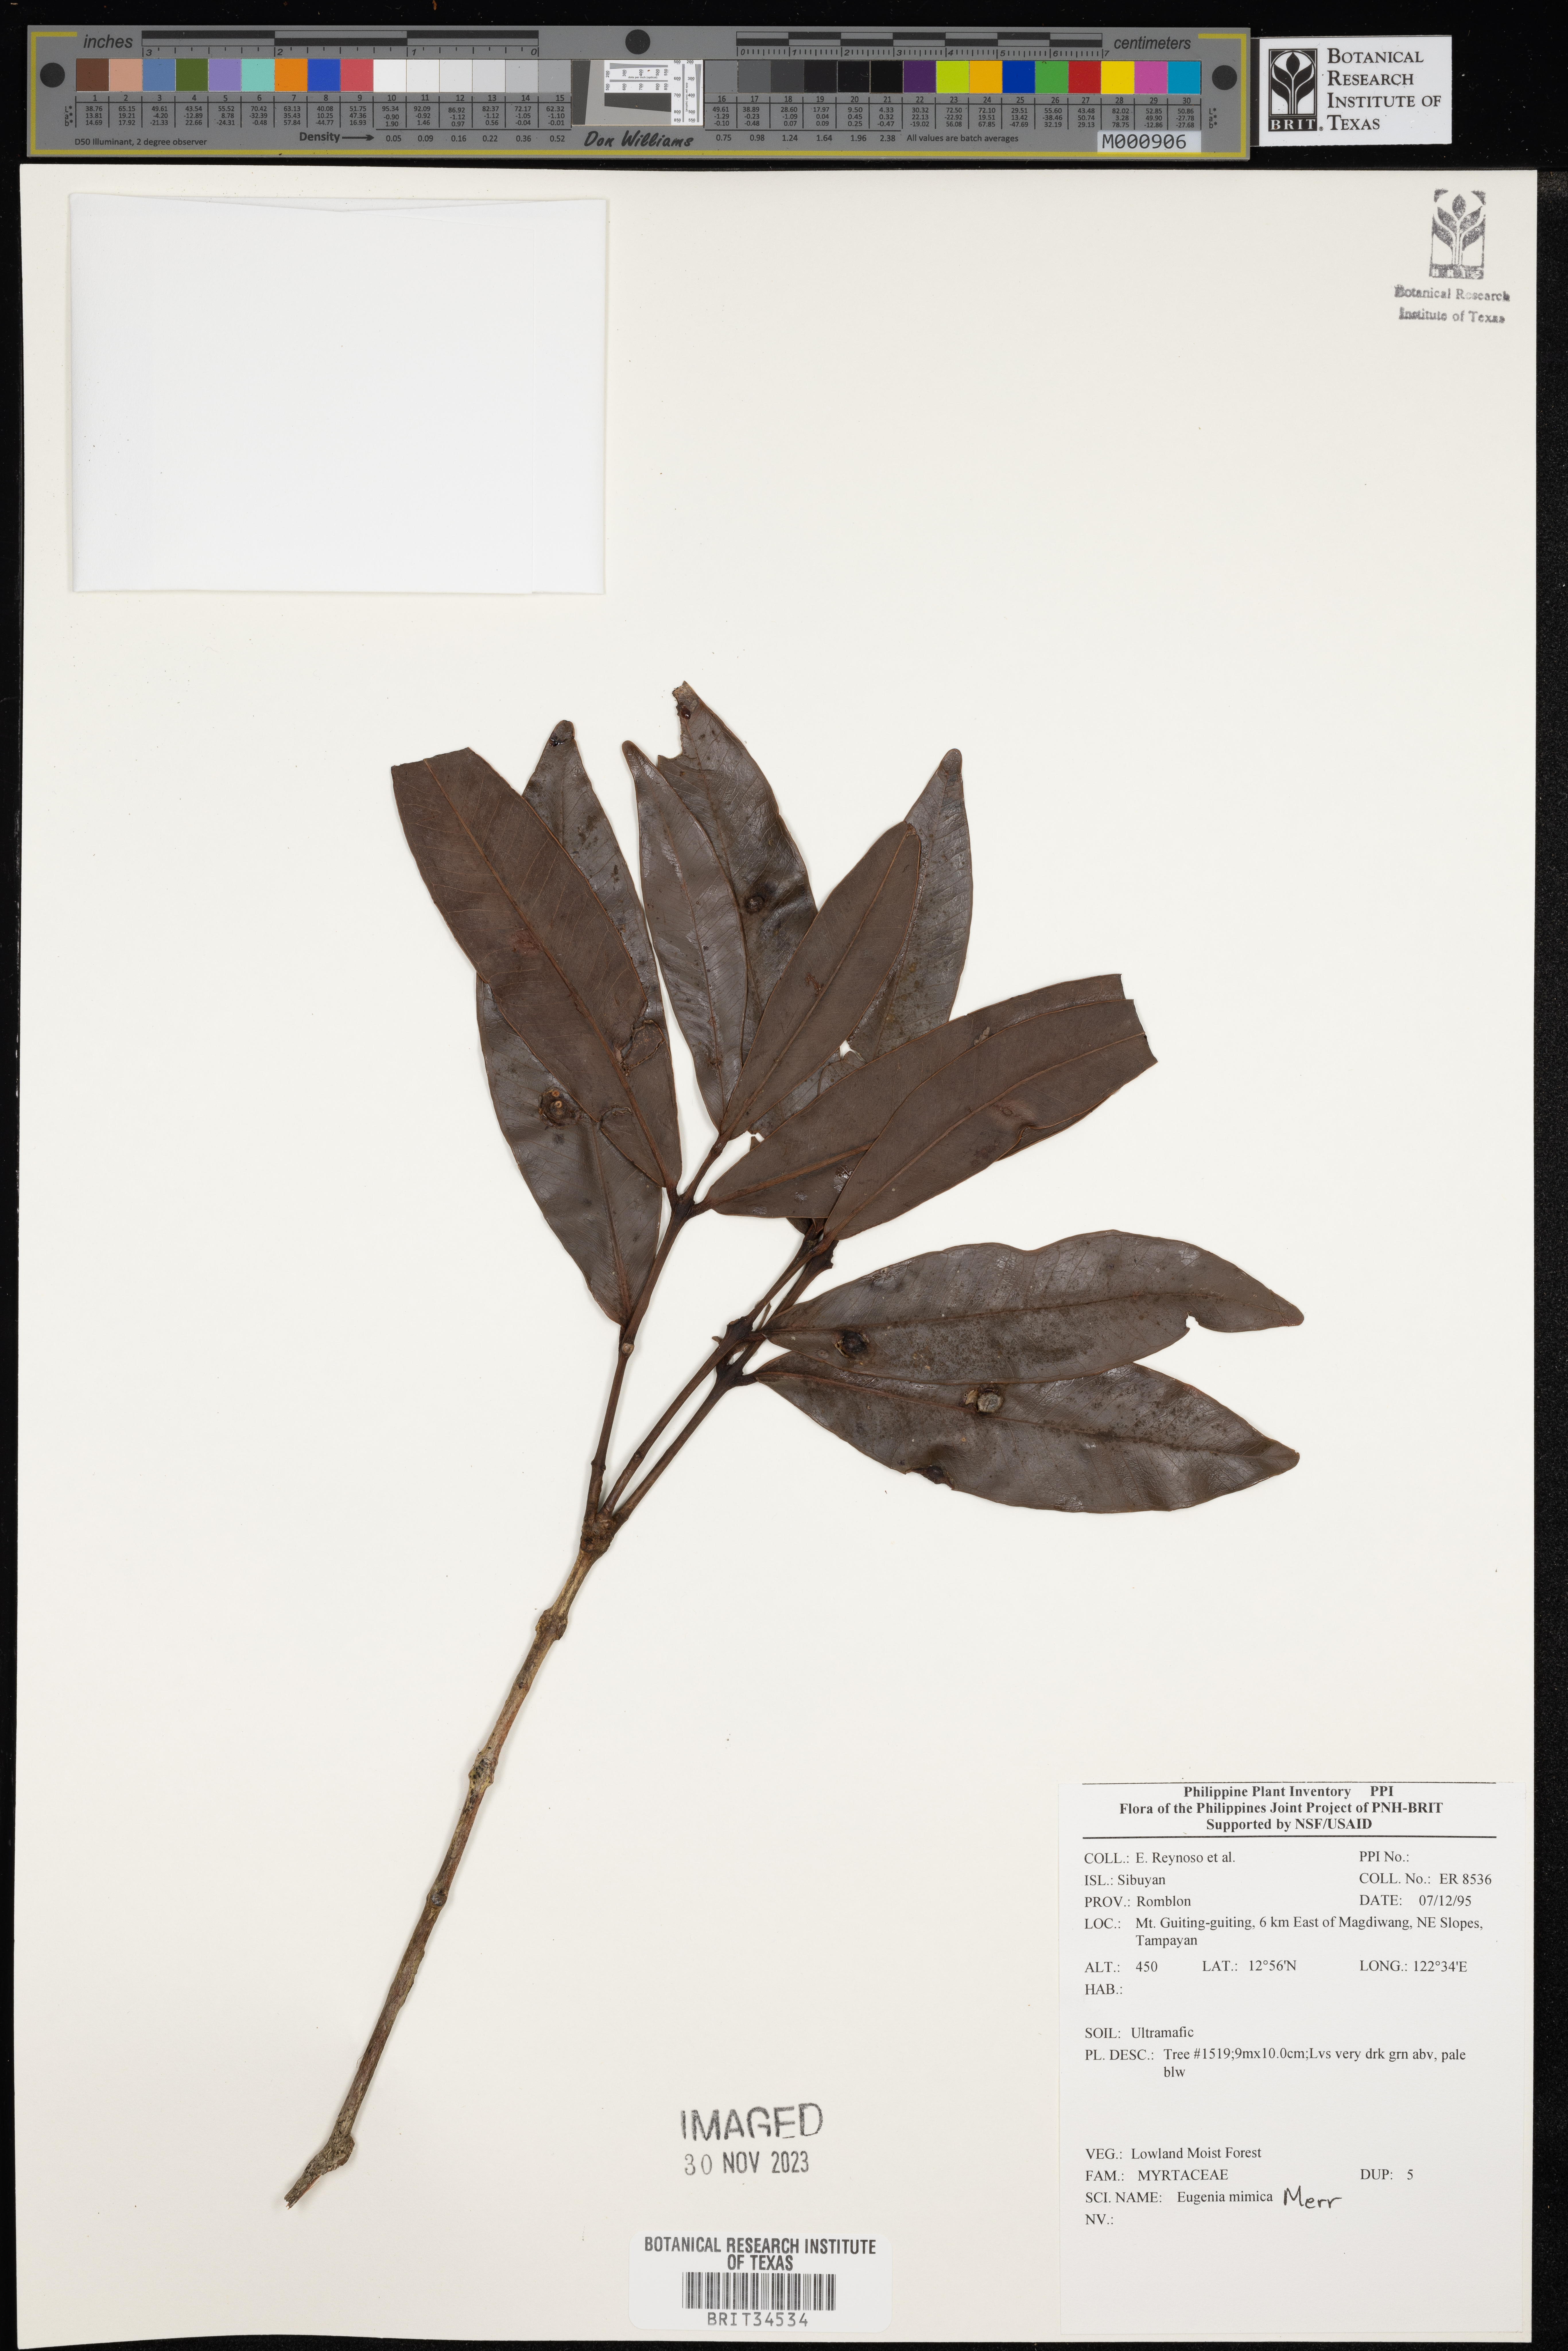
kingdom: Plantae
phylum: Tracheophyta
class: Magnoliopsida
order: Myrtales
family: Myrtaceae
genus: Eugenia
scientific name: Eugenia
